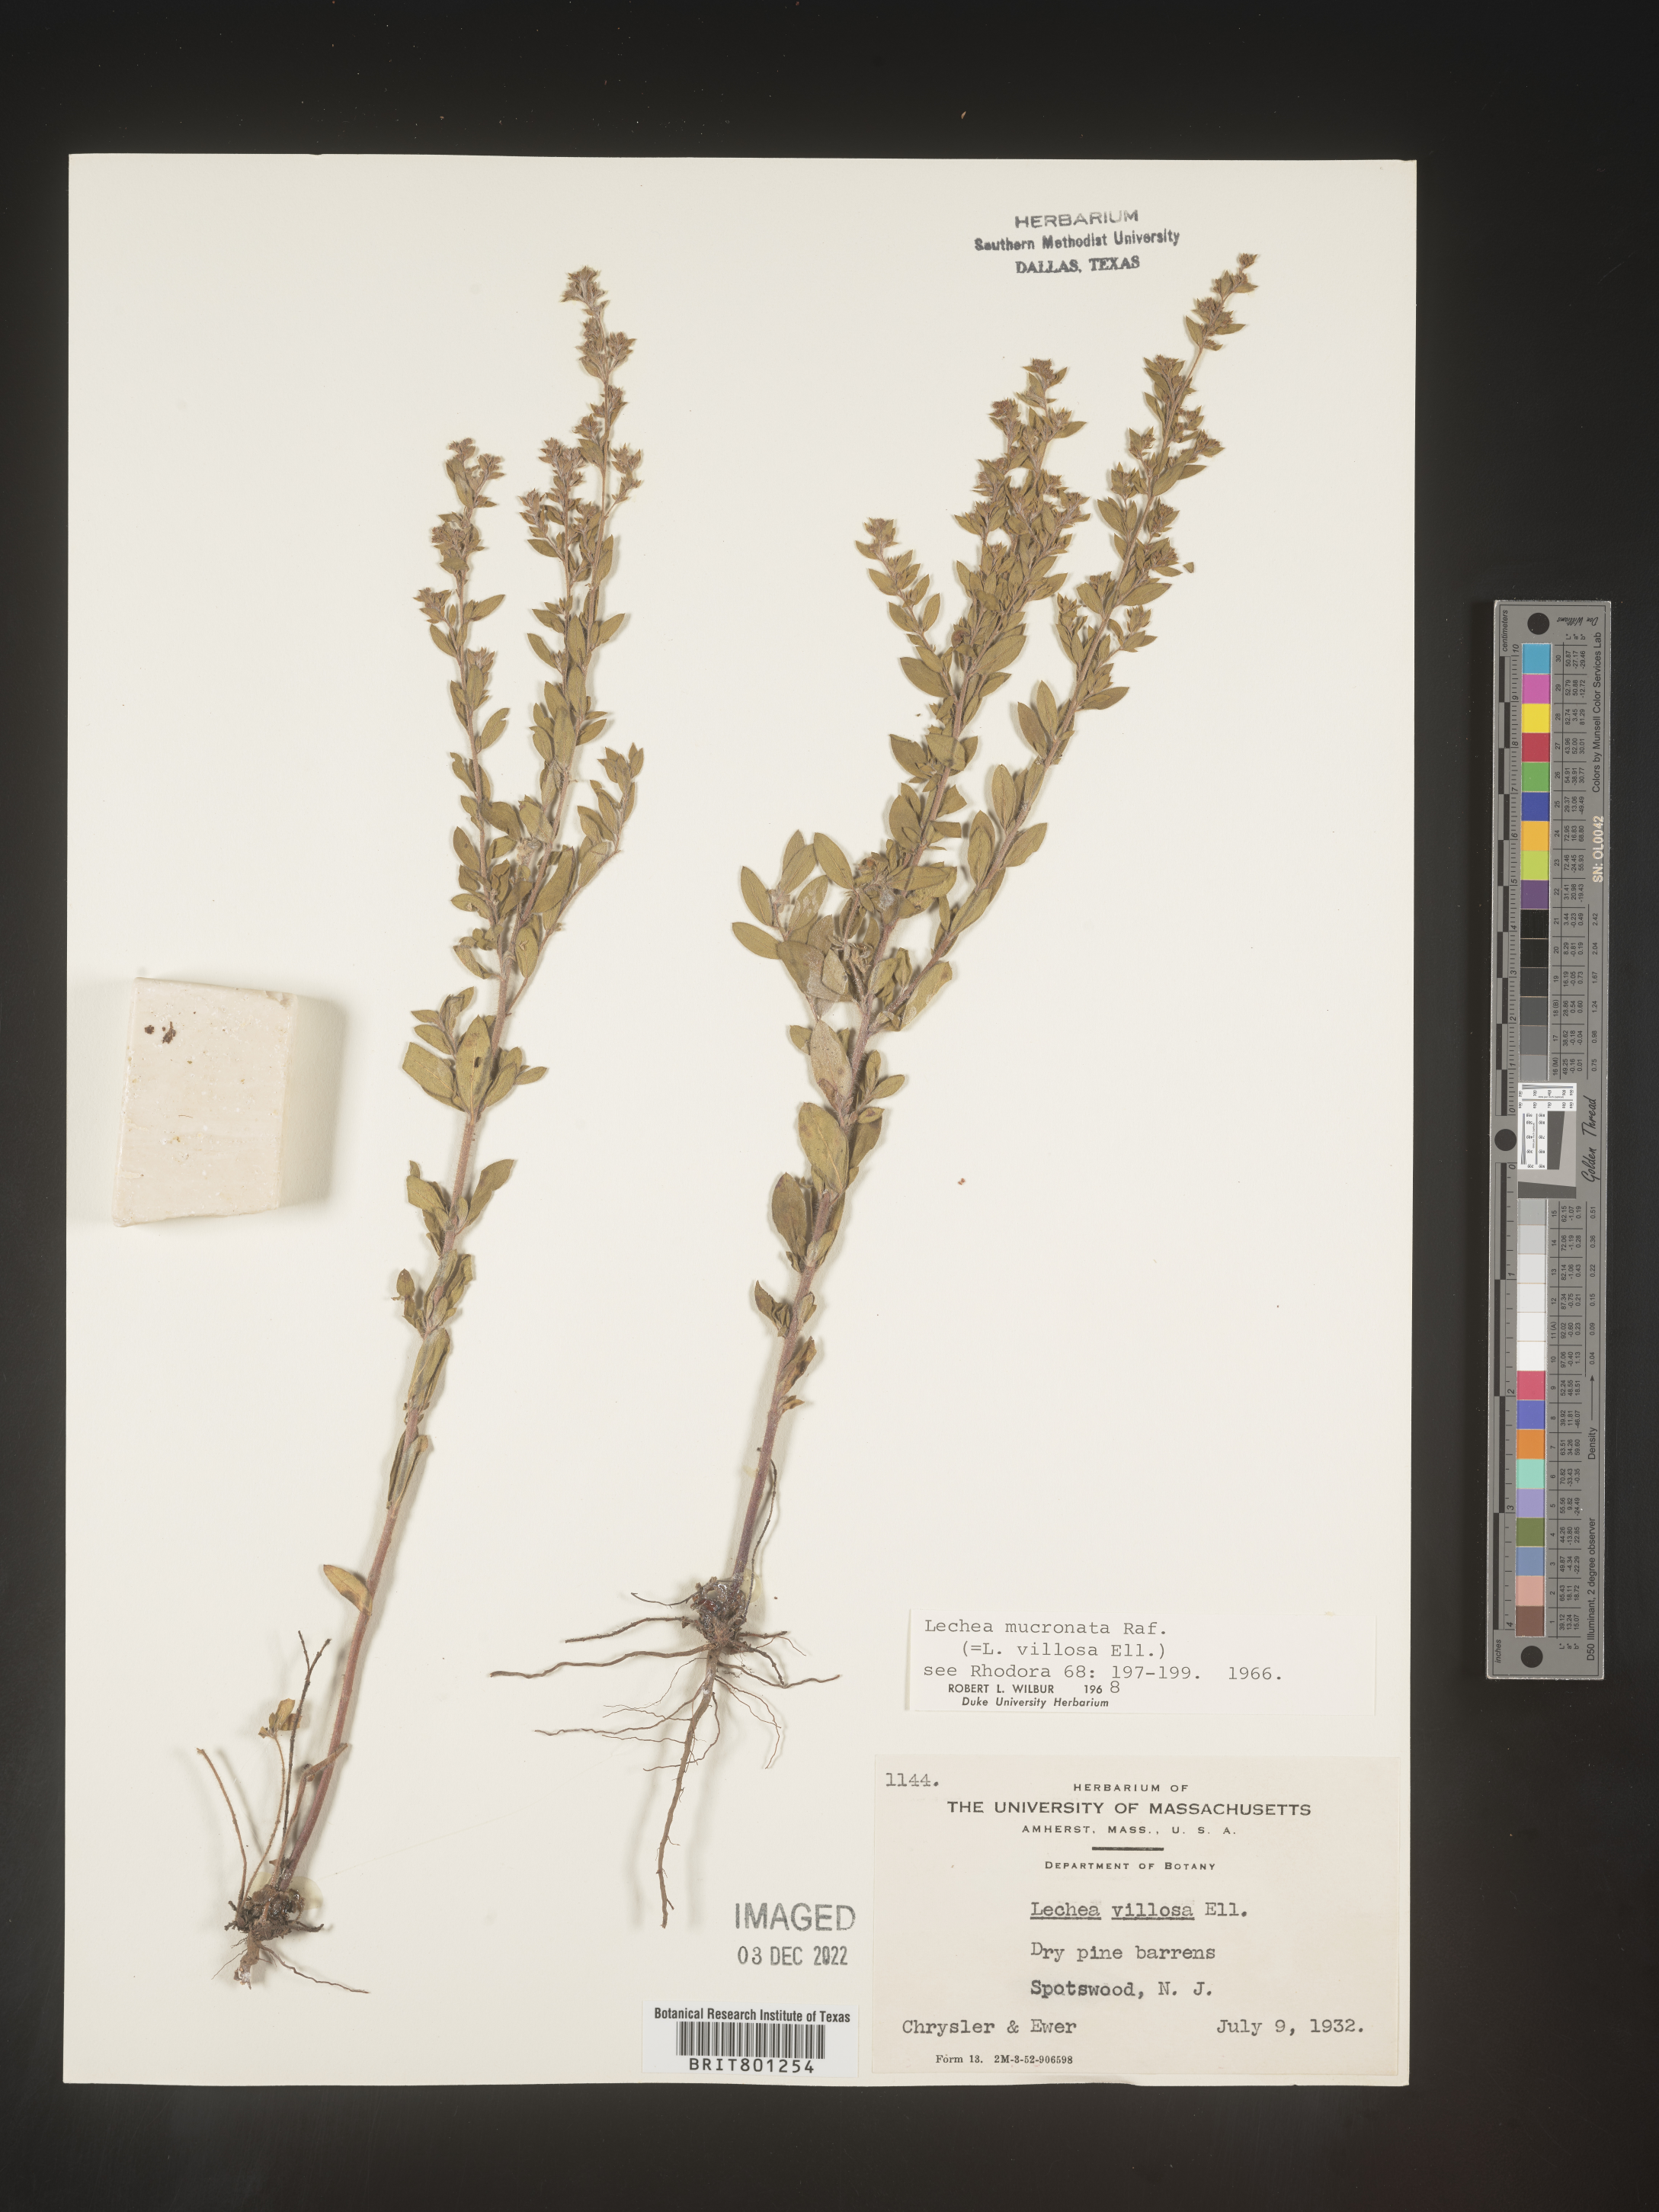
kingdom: Plantae
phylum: Tracheophyta
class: Magnoliopsida
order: Malvales
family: Cistaceae
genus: Lechea
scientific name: Lechea mucronata
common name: Hairy pinweed
